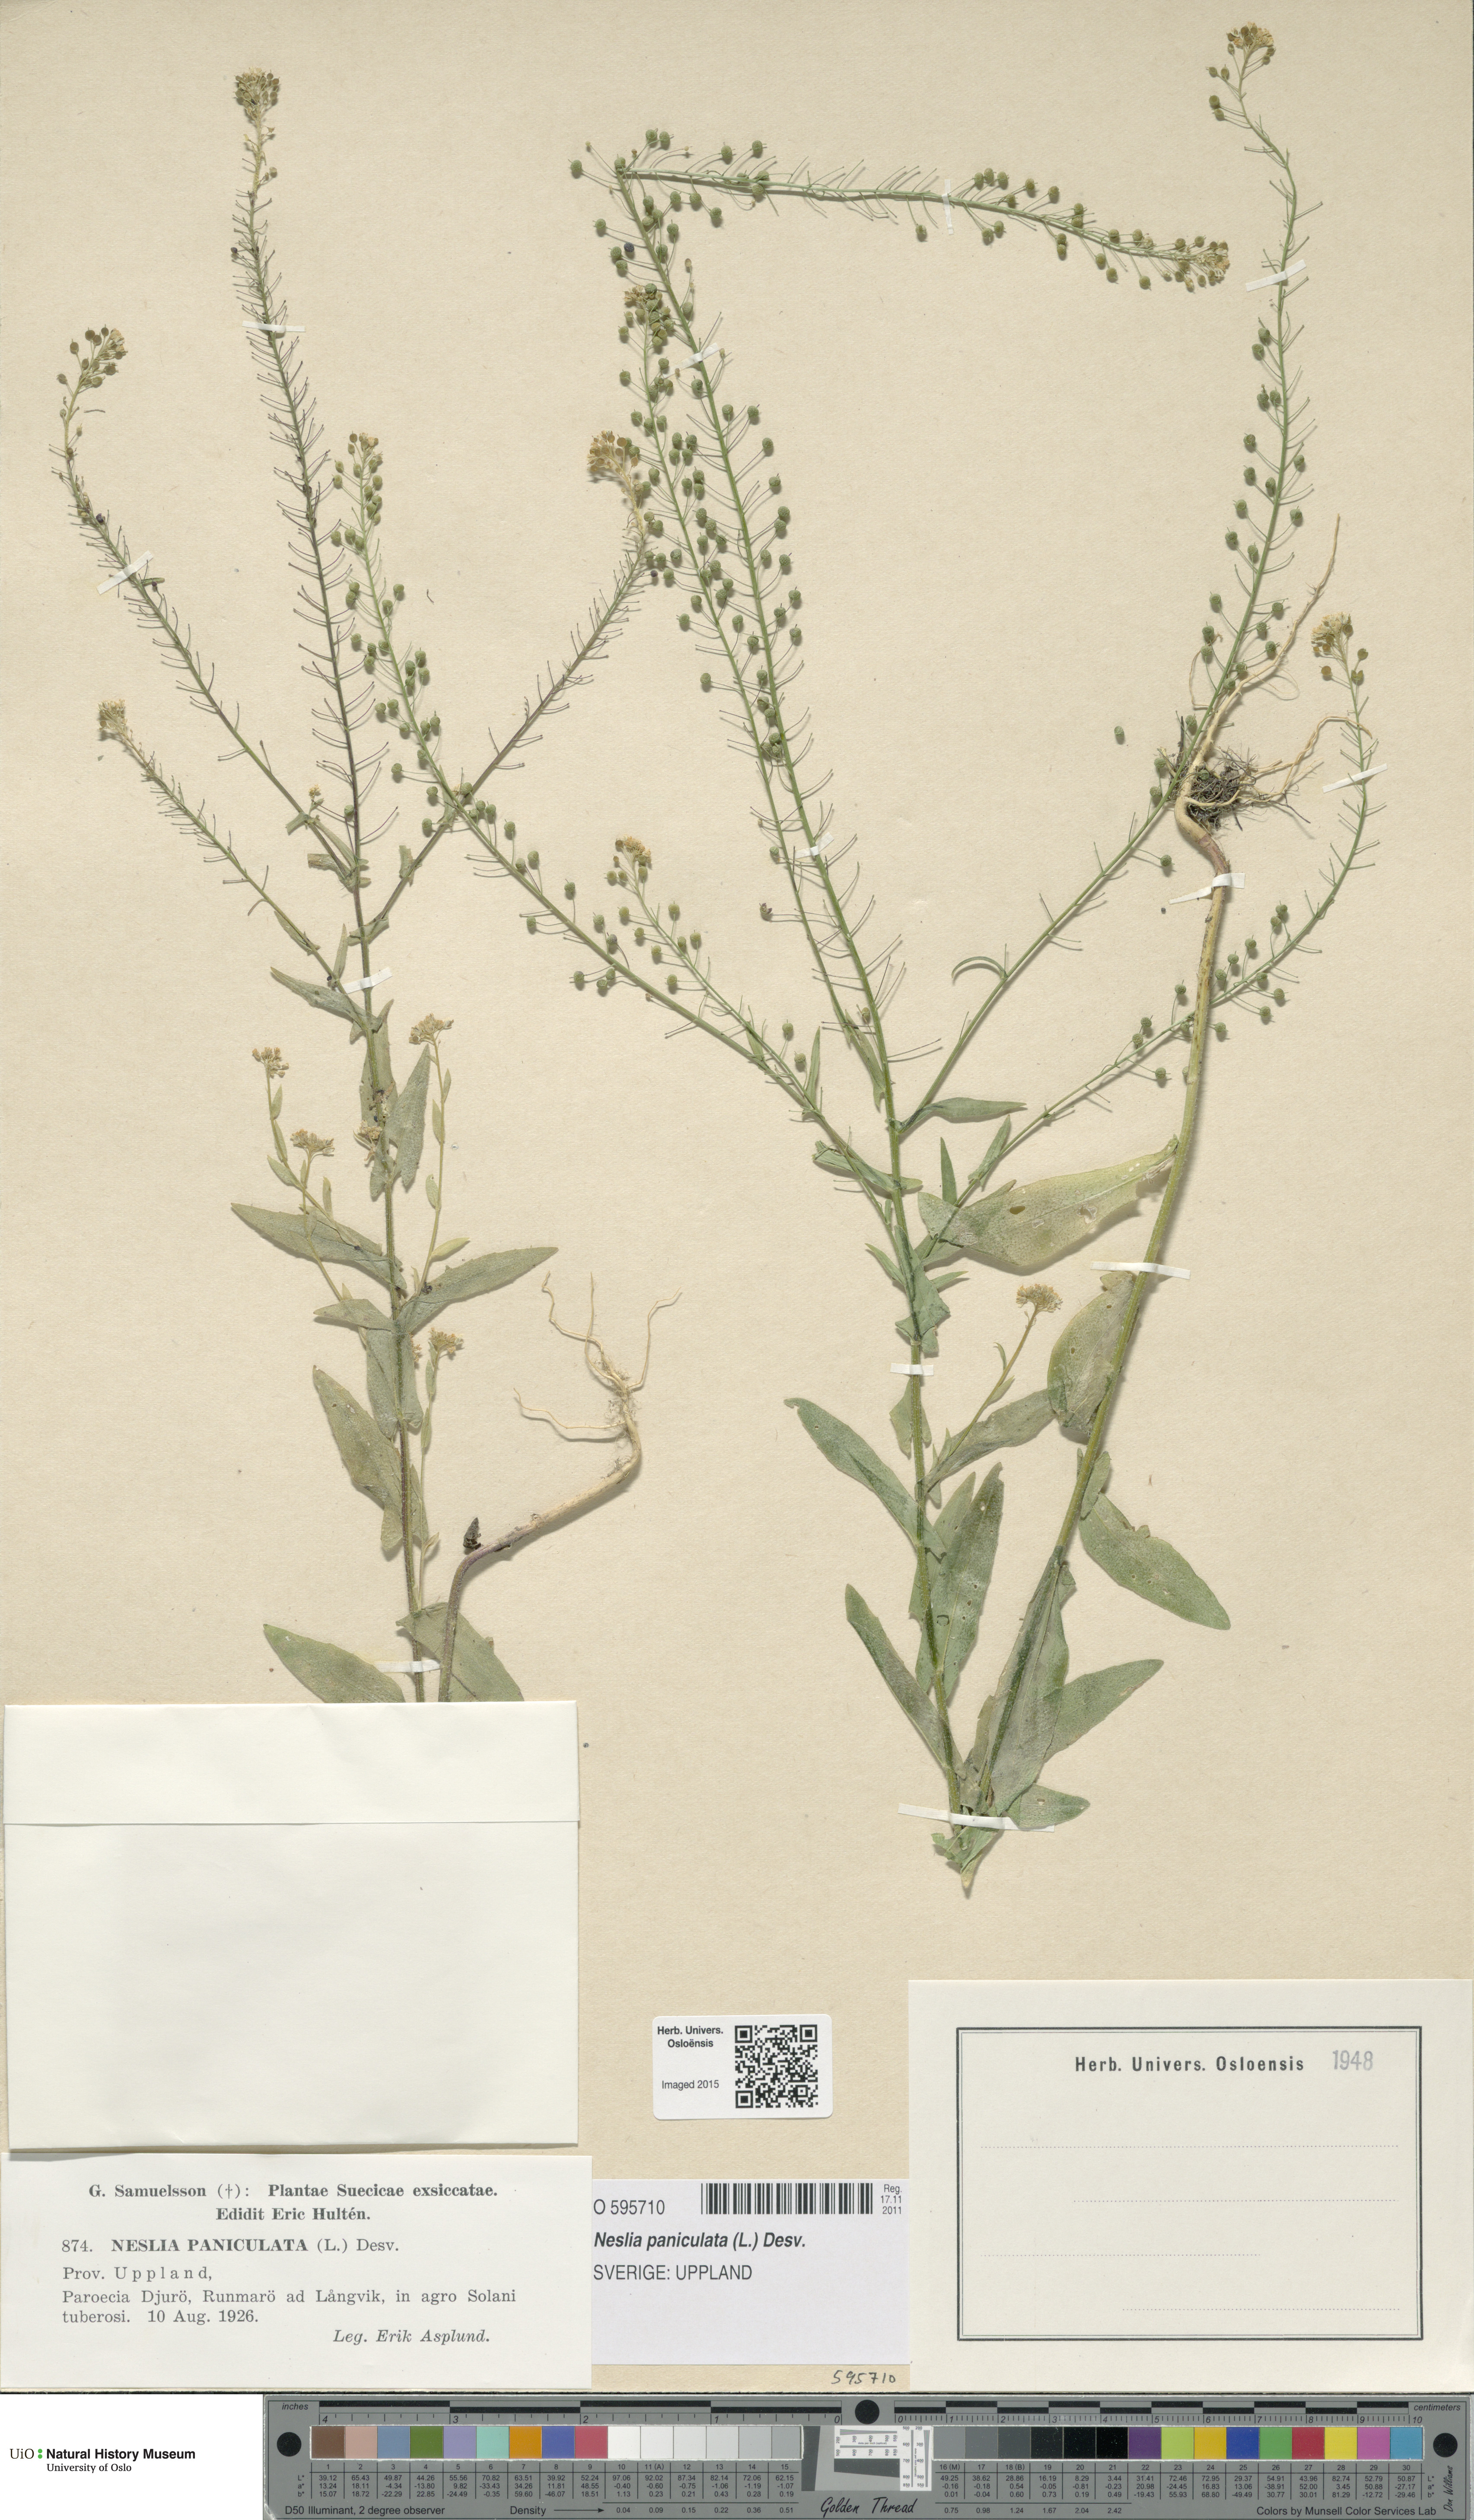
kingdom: Plantae
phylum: Tracheophyta
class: Magnoliopsida
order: Brassicales
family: Brassicaceae
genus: Neslia
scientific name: Neslia paniculata
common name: Ball mustard
